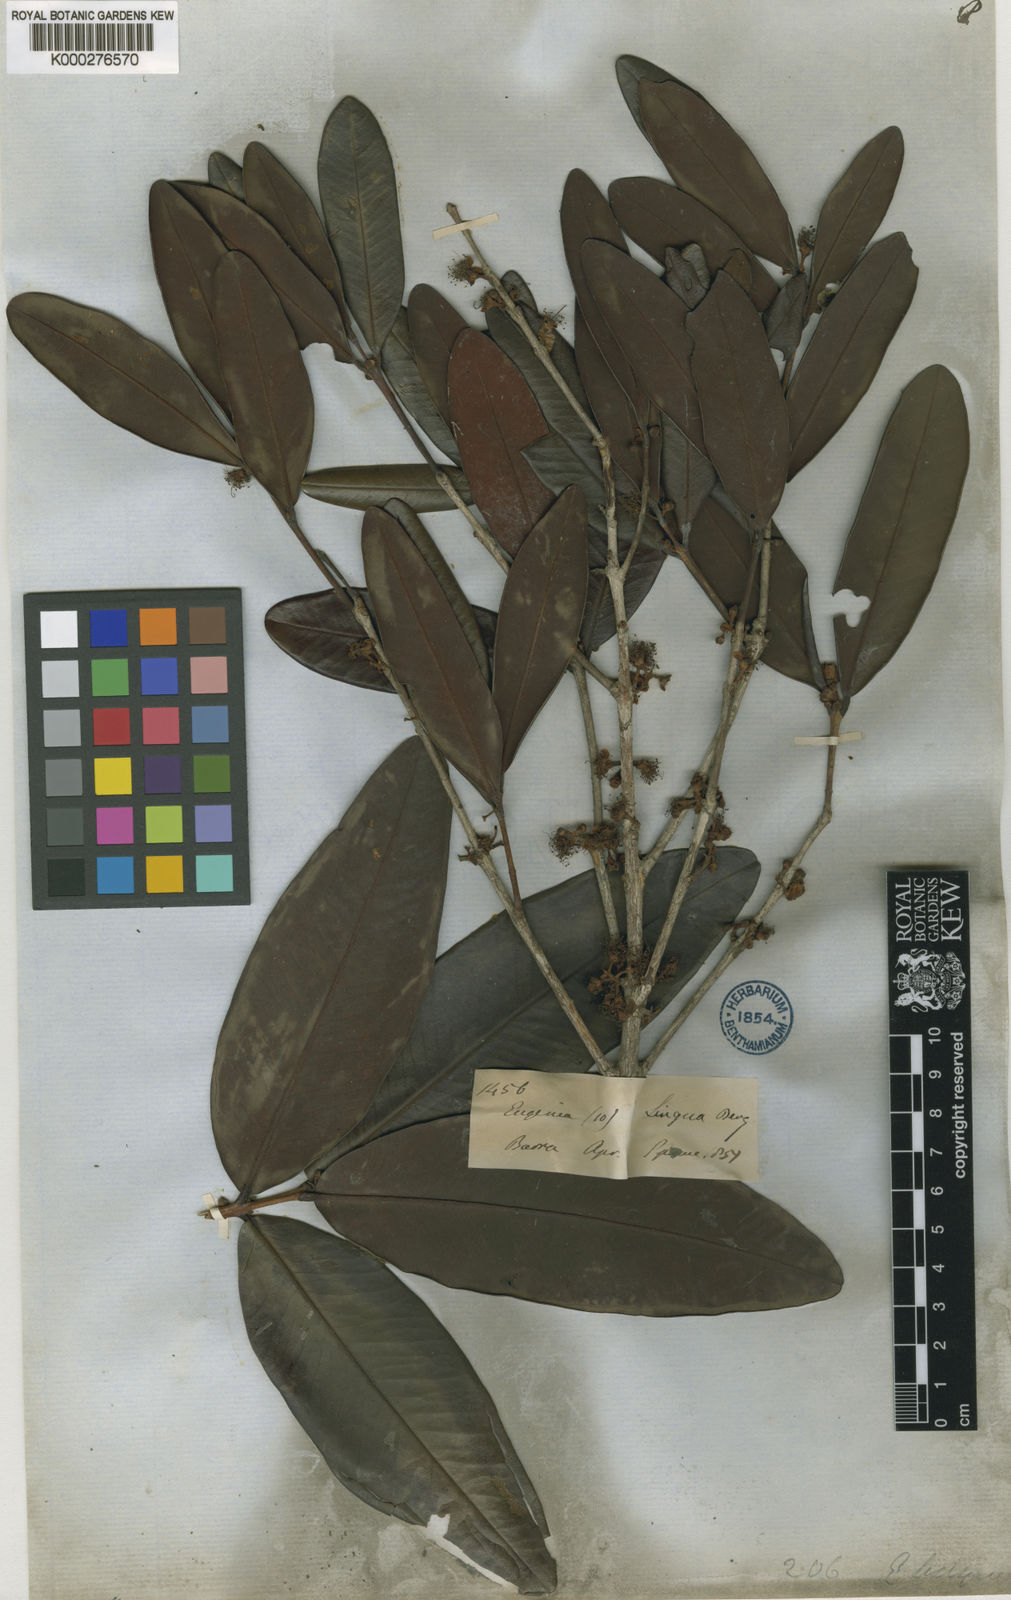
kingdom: Plantae
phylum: Tracheophyta
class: Magnoliopsida
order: Myrtales
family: Myrtaceae
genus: Eugenia
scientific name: Eugenia cachoeirensis
